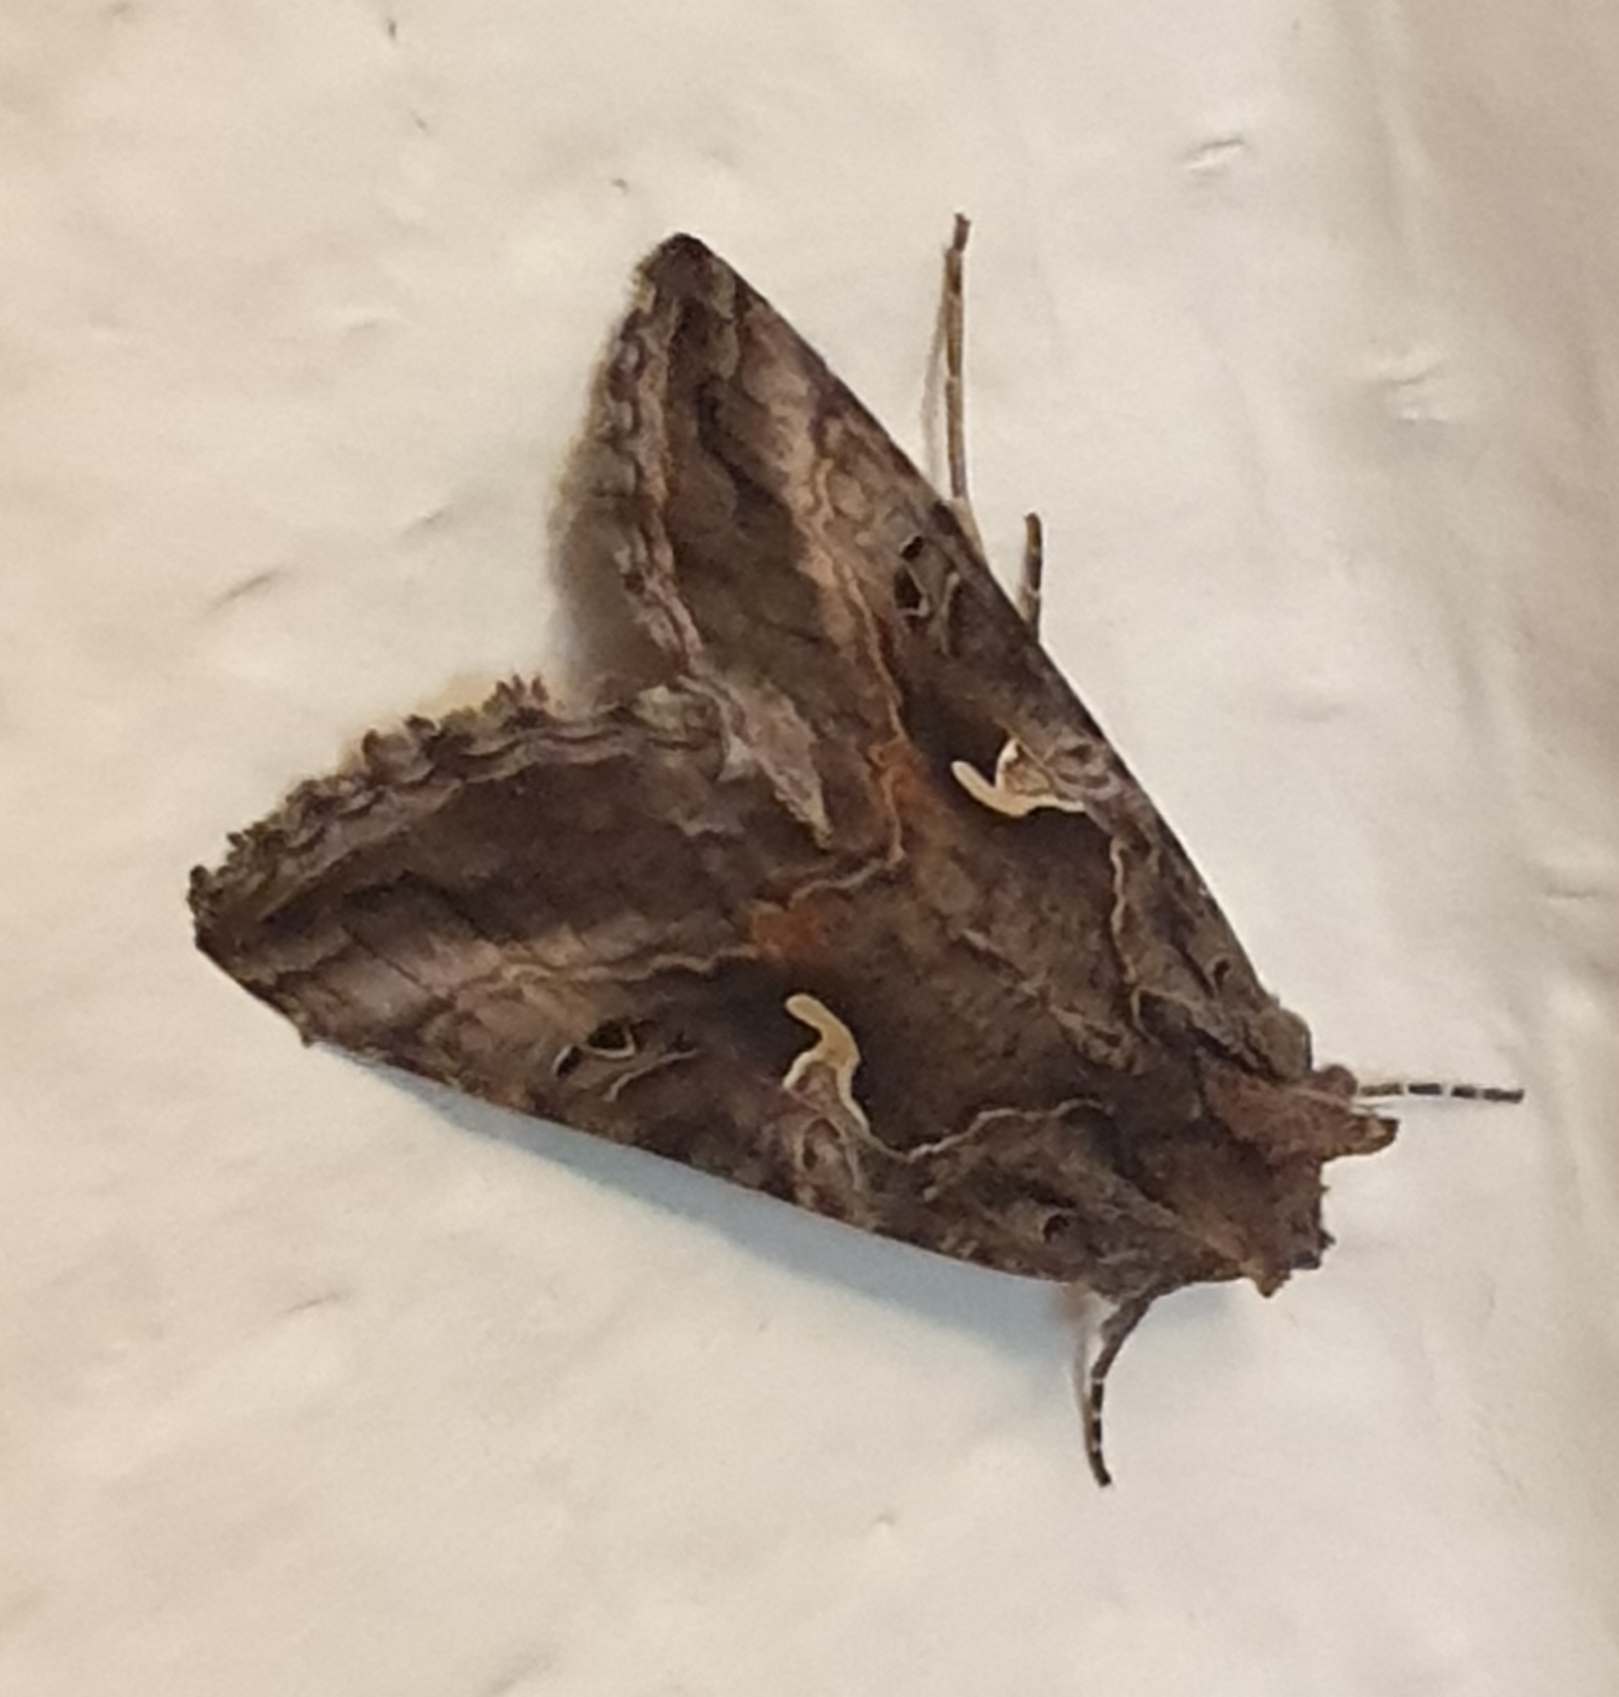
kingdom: Animalia
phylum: Arthropoda
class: Insecta
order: Lepidoptera
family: Noctuidae
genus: Autographa
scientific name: Autographa gamma
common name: Gammaugle
